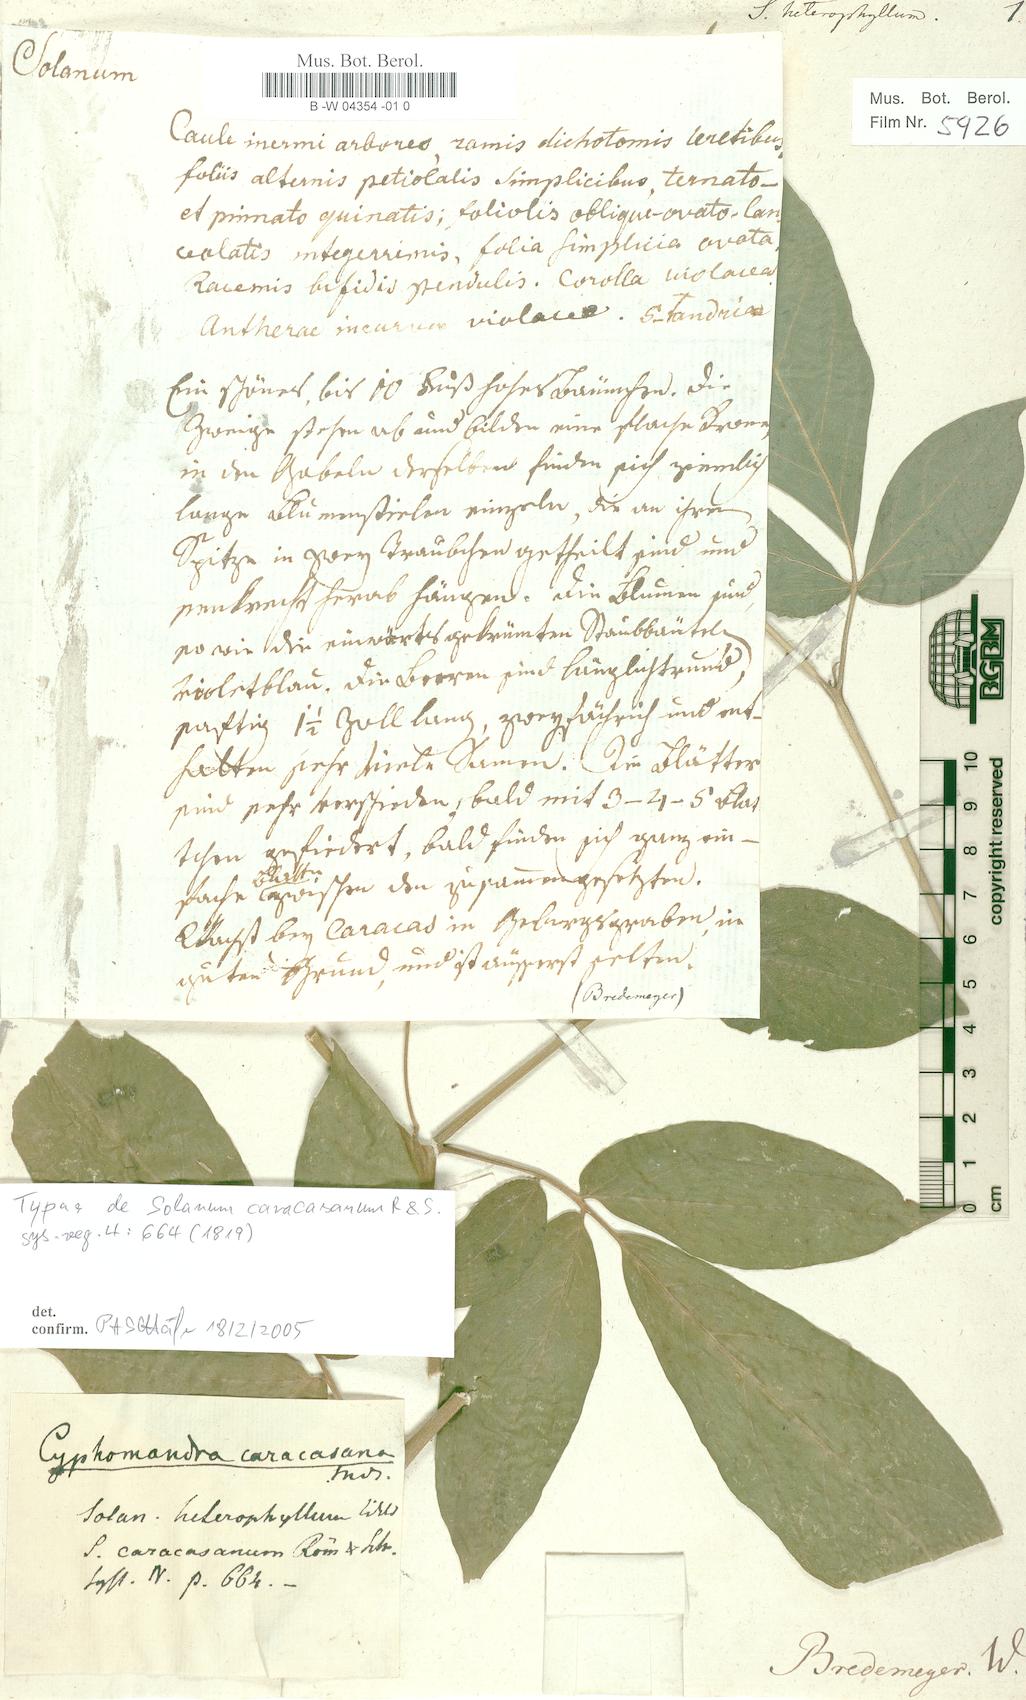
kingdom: Plantae
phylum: Tracheophyta
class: Magnoliopsida
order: Solanales
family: Solanaceae
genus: Solanum
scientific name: Solanum heterophyllum
